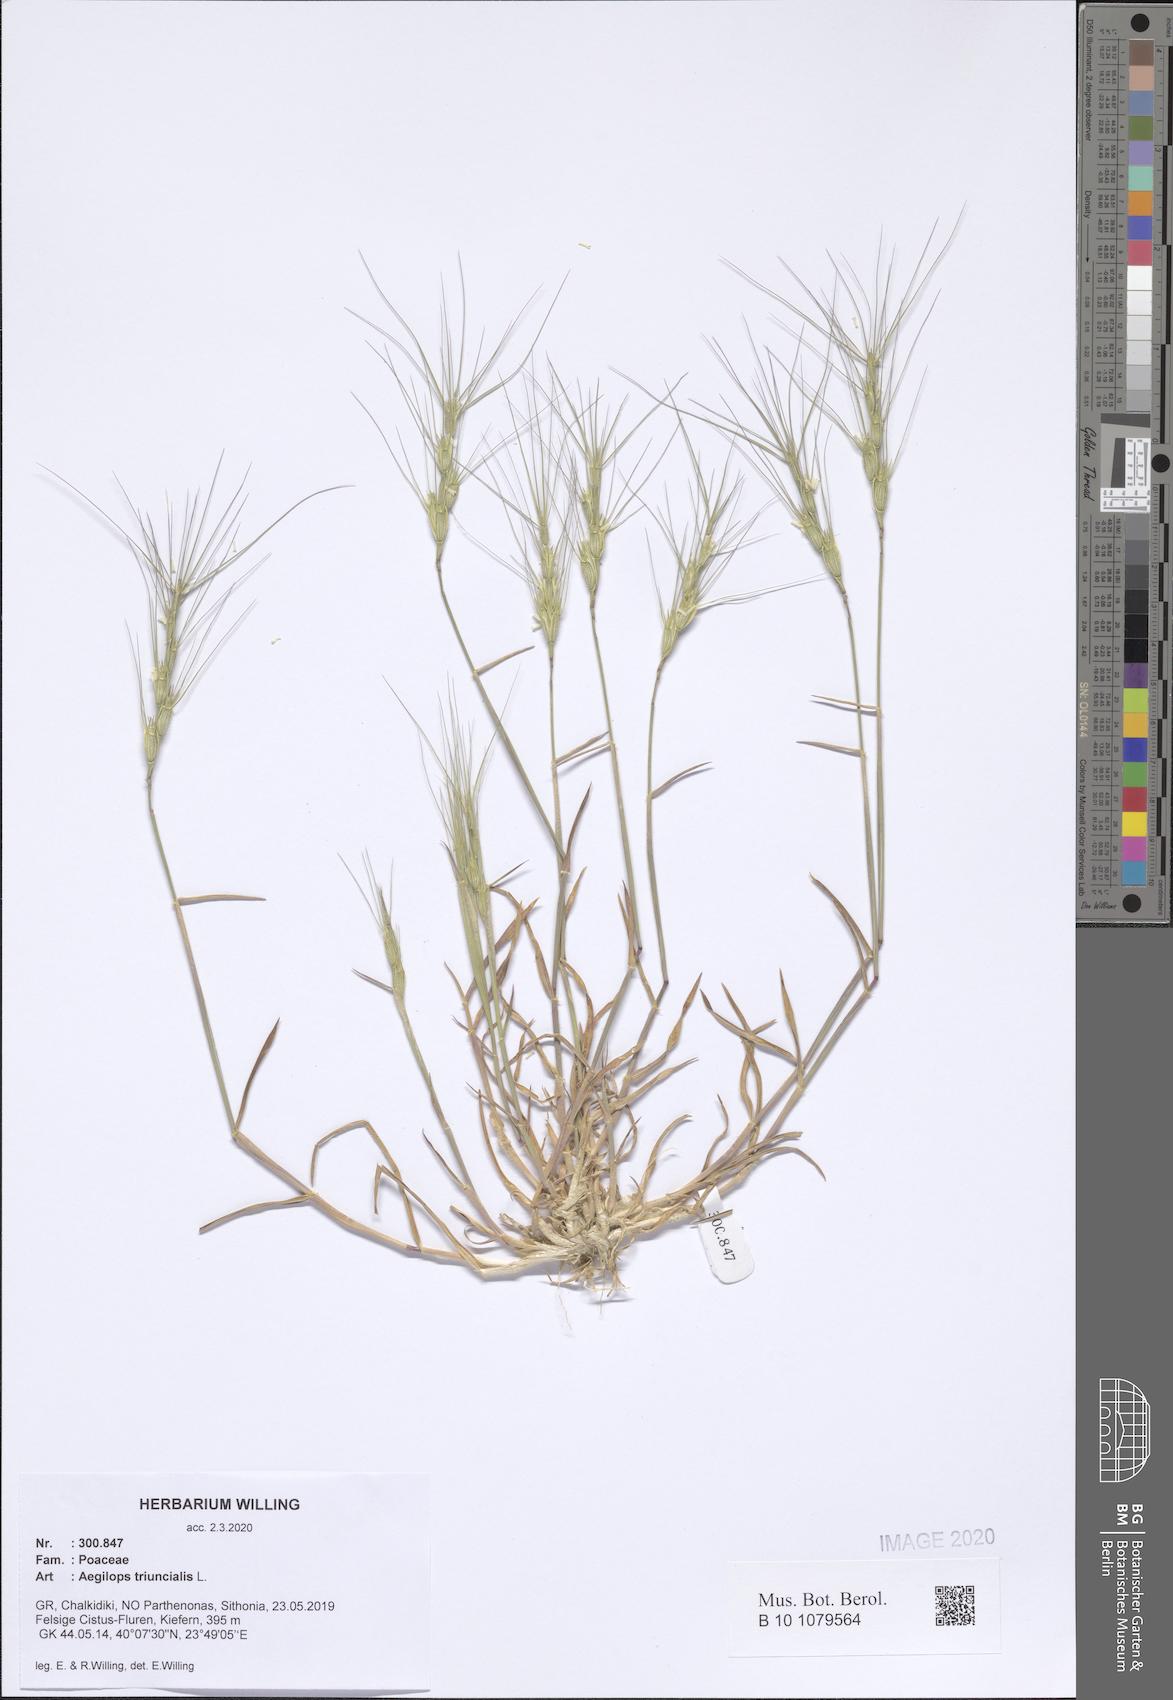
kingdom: Plantae
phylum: Tracheophyta
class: Liliopsida
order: Poales
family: Poaceae
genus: Aegilops
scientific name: Aegilops triuncialis
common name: Barb goat grass
